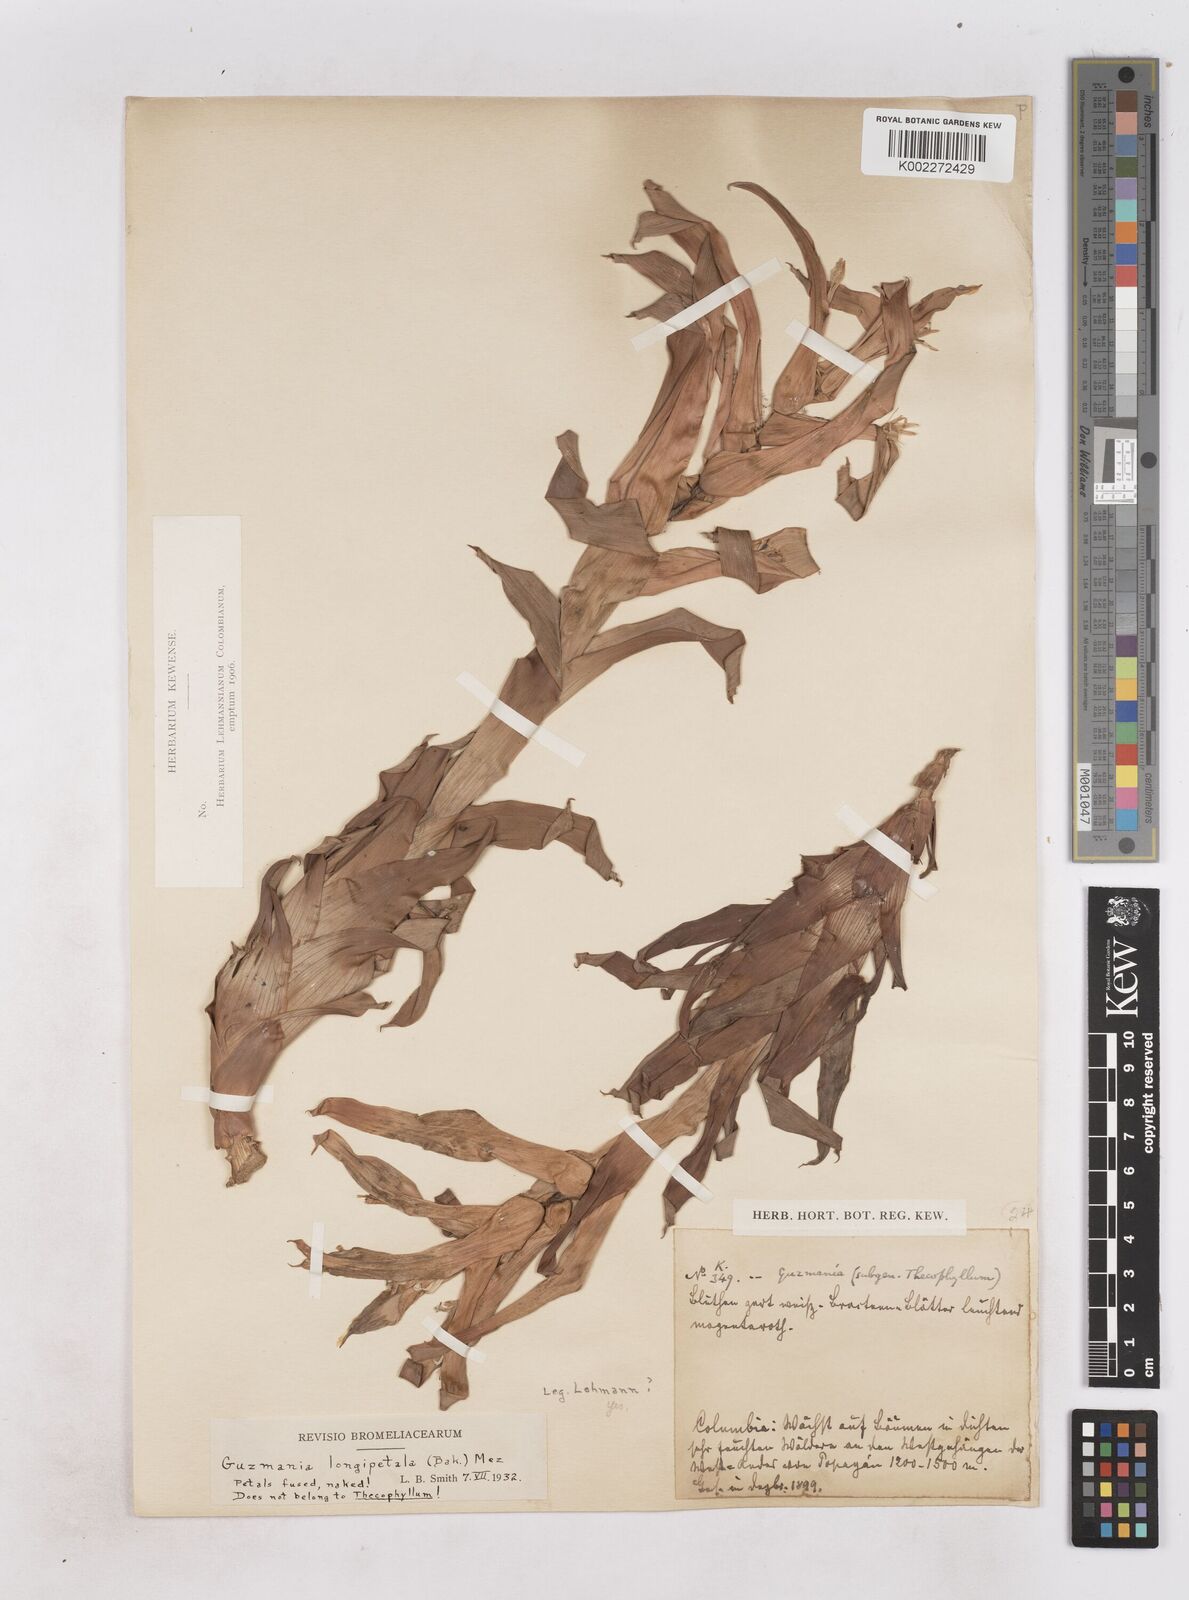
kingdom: Plantae
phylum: Tracheophyta
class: Liliopsida
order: Poales
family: Bromeliaceae
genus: Guzmania
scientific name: Guzmania longipetala
